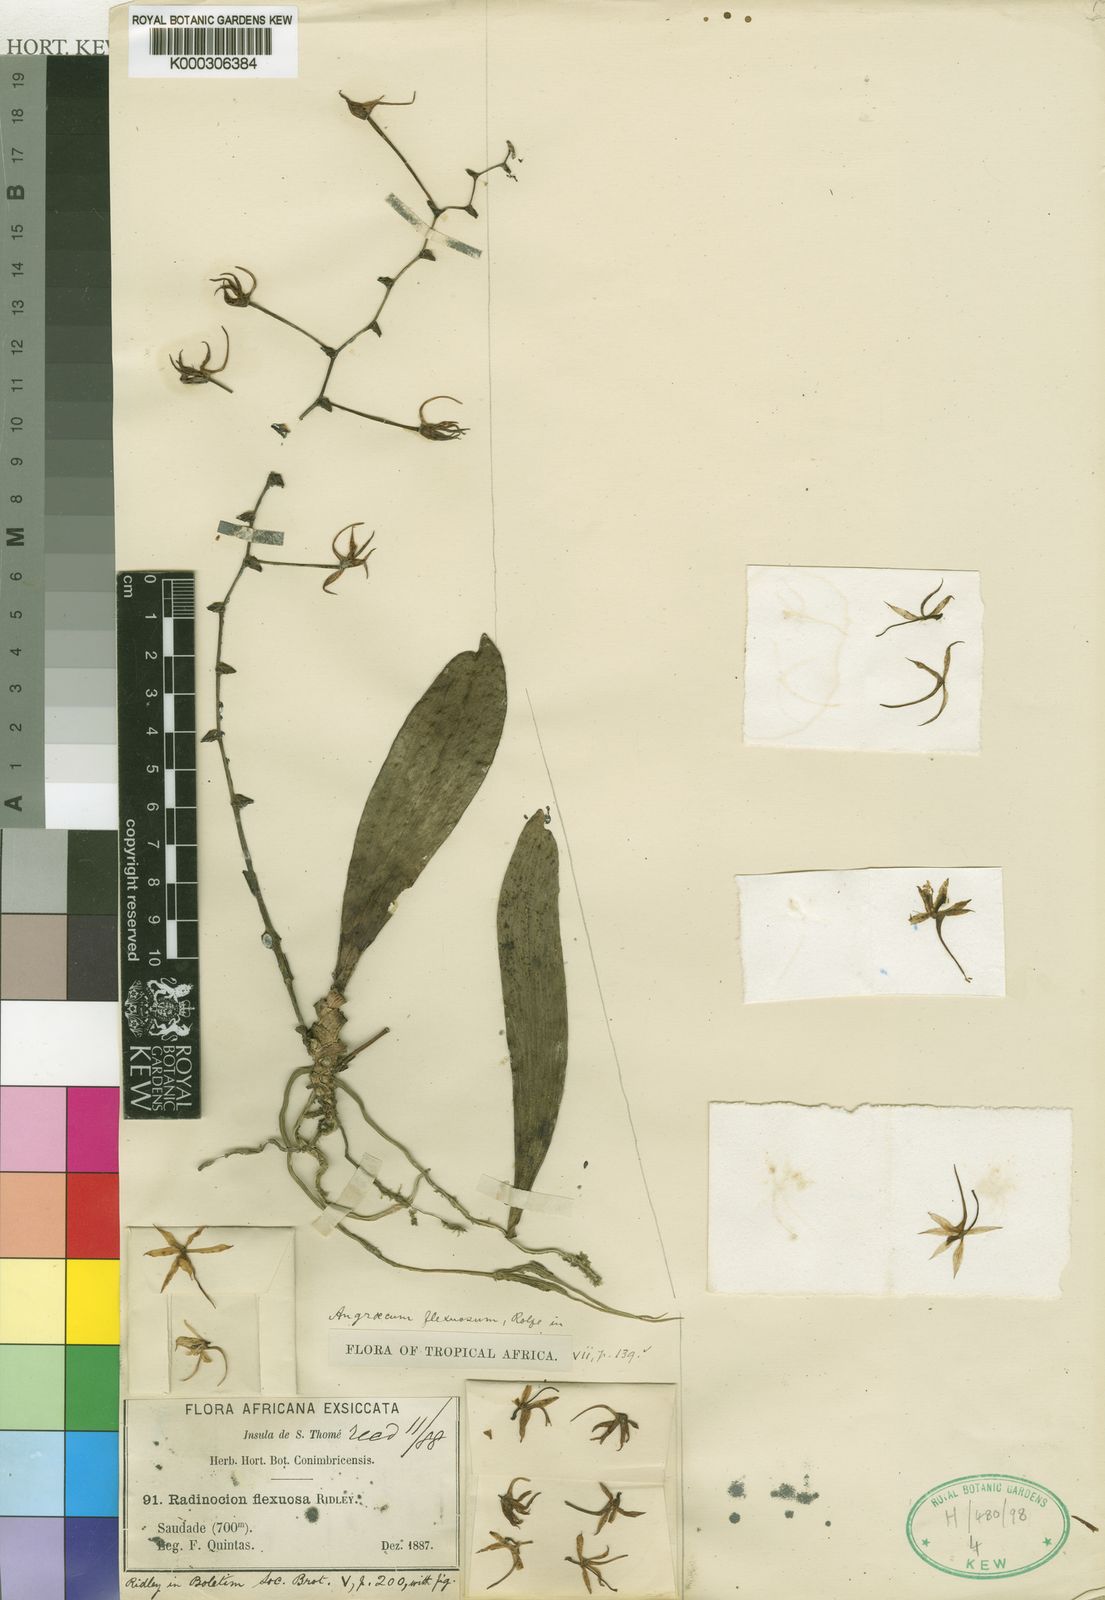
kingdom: Plantae
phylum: Tracheophyta
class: Liliopsida
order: Asparagales
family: Orchidaceae
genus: Aerangis
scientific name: Aerangis flexuosa
